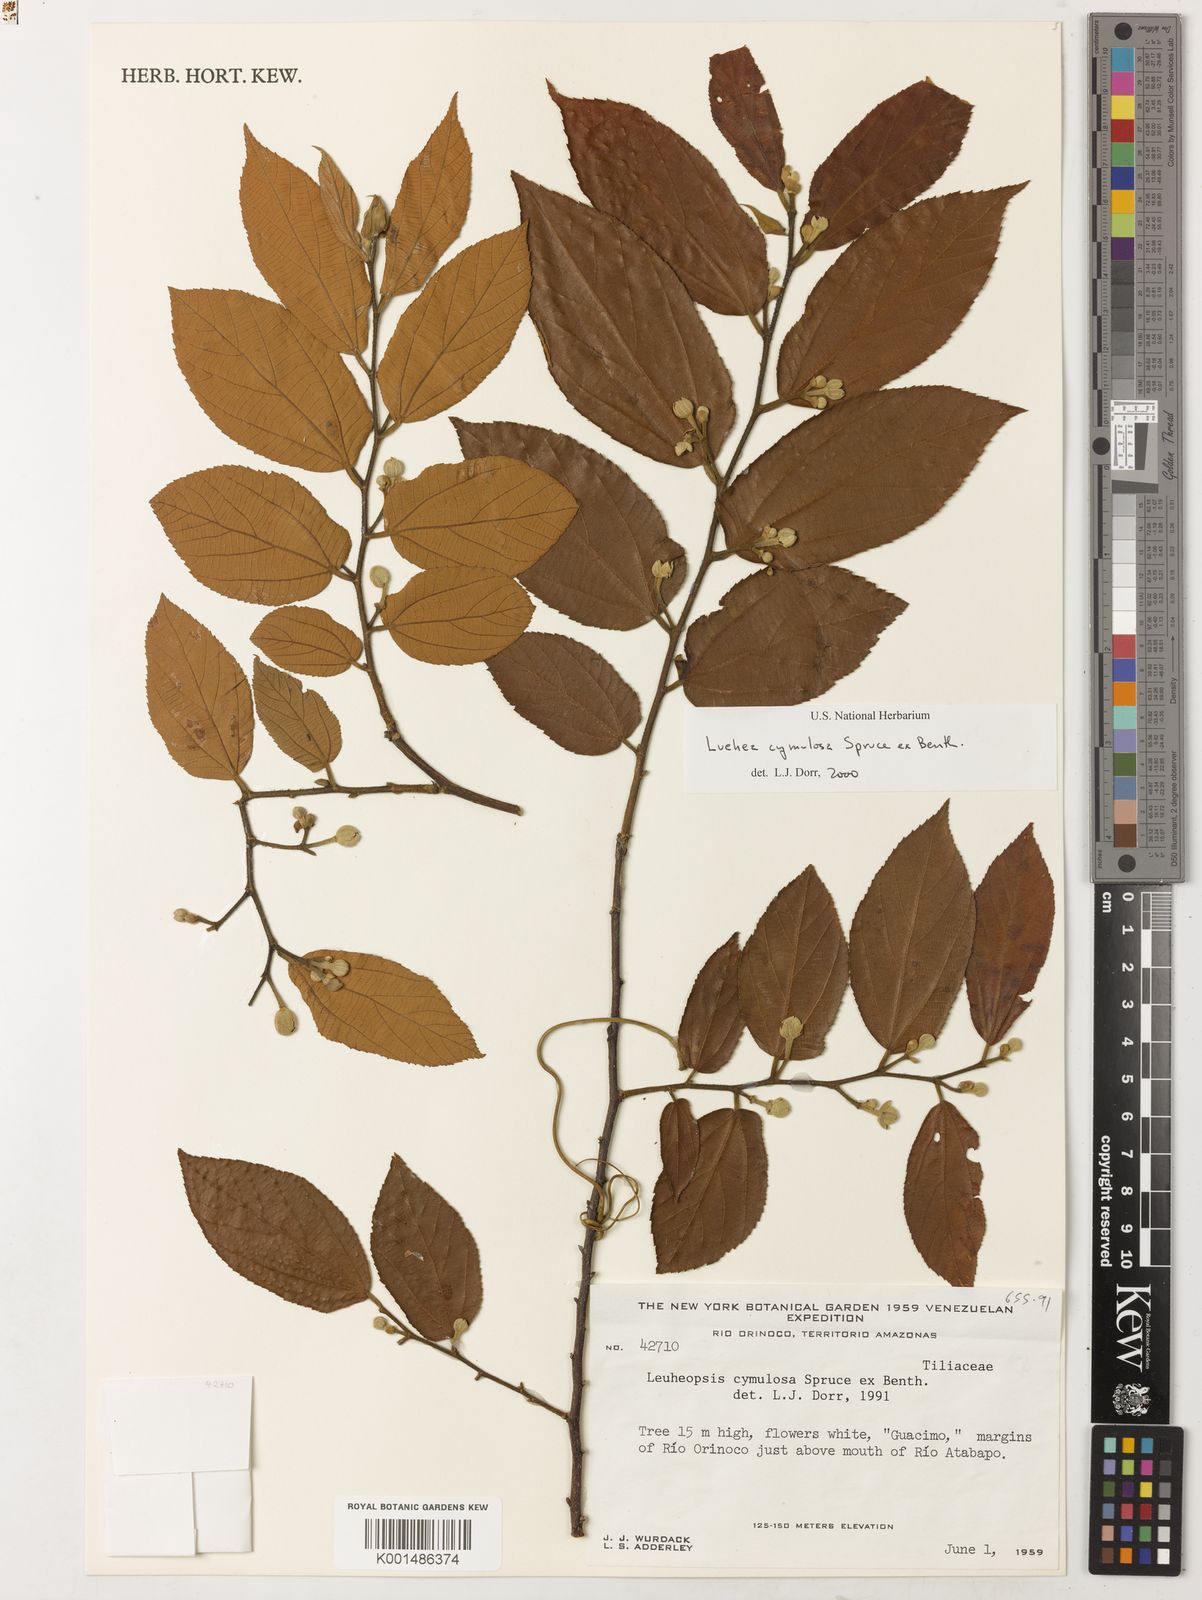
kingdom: Plantae
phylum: Tracheophyta
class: Magnoliopsida
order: Malvales
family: Malvaceae
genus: Luehea
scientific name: Luehea cymulosa
